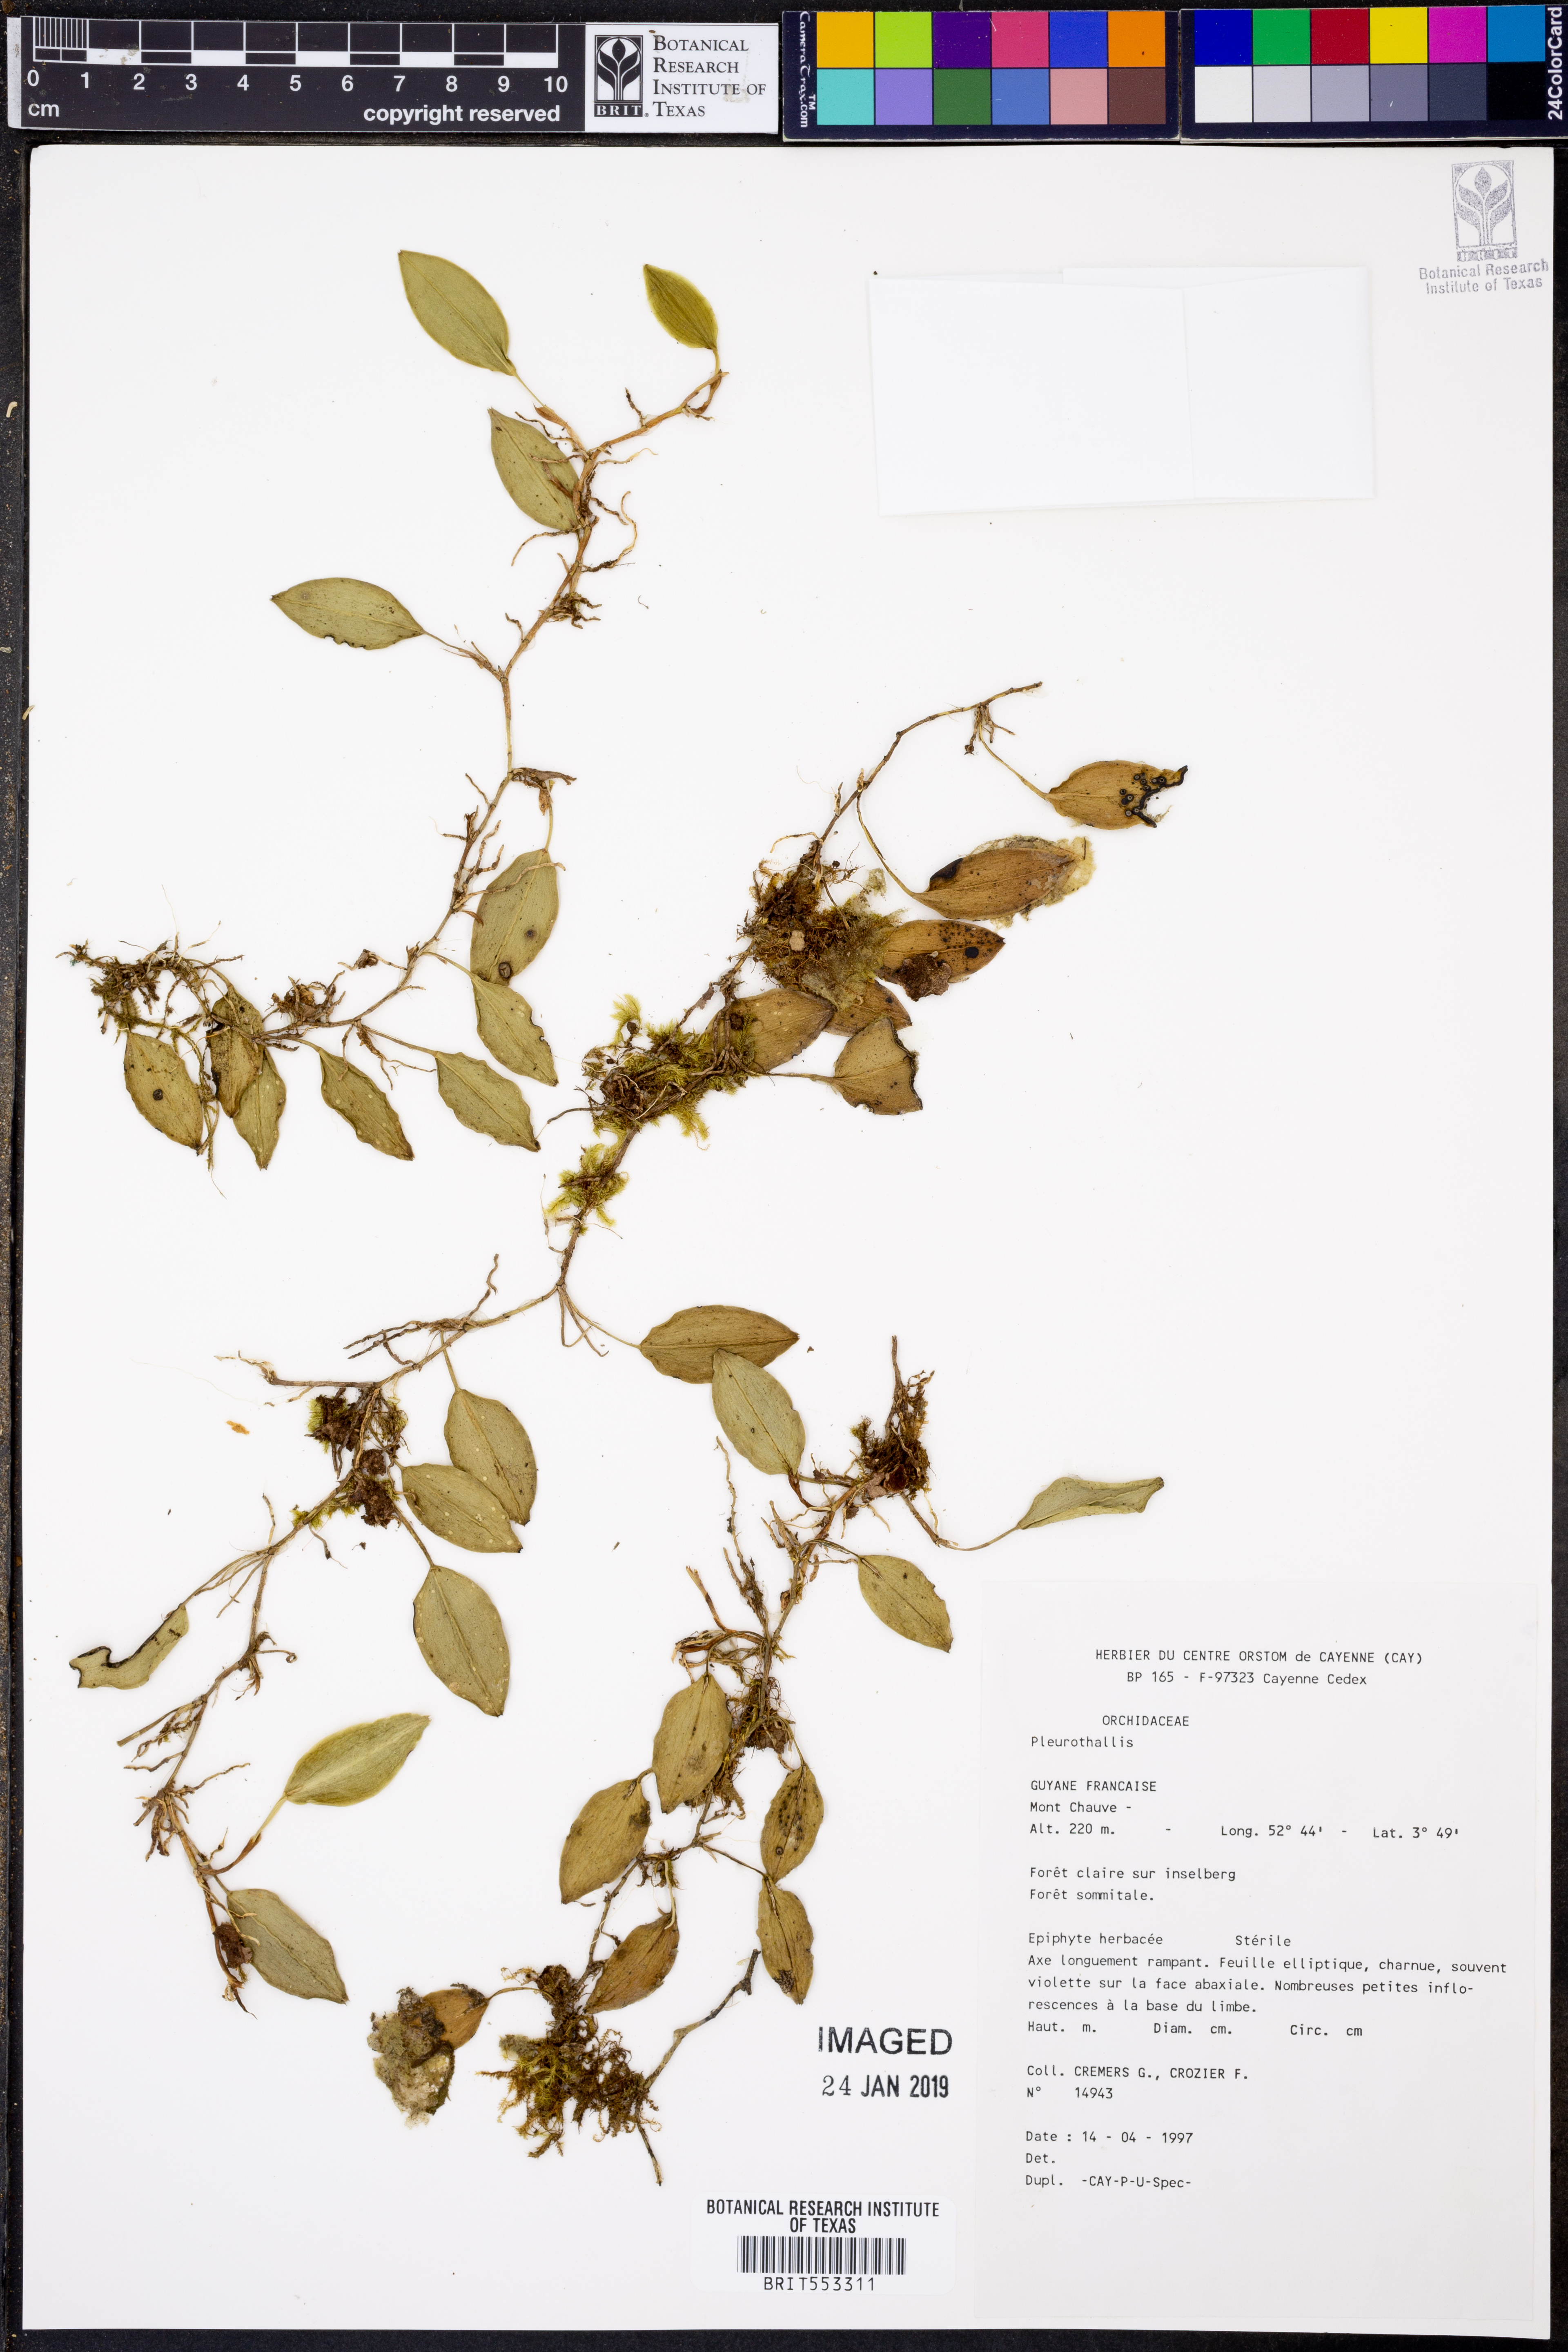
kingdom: Plantae
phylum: Tracheophyta
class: Liliopsida
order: Asparagales
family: Orchidaceae
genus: Pleurothallis
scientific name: Pleurothallis
